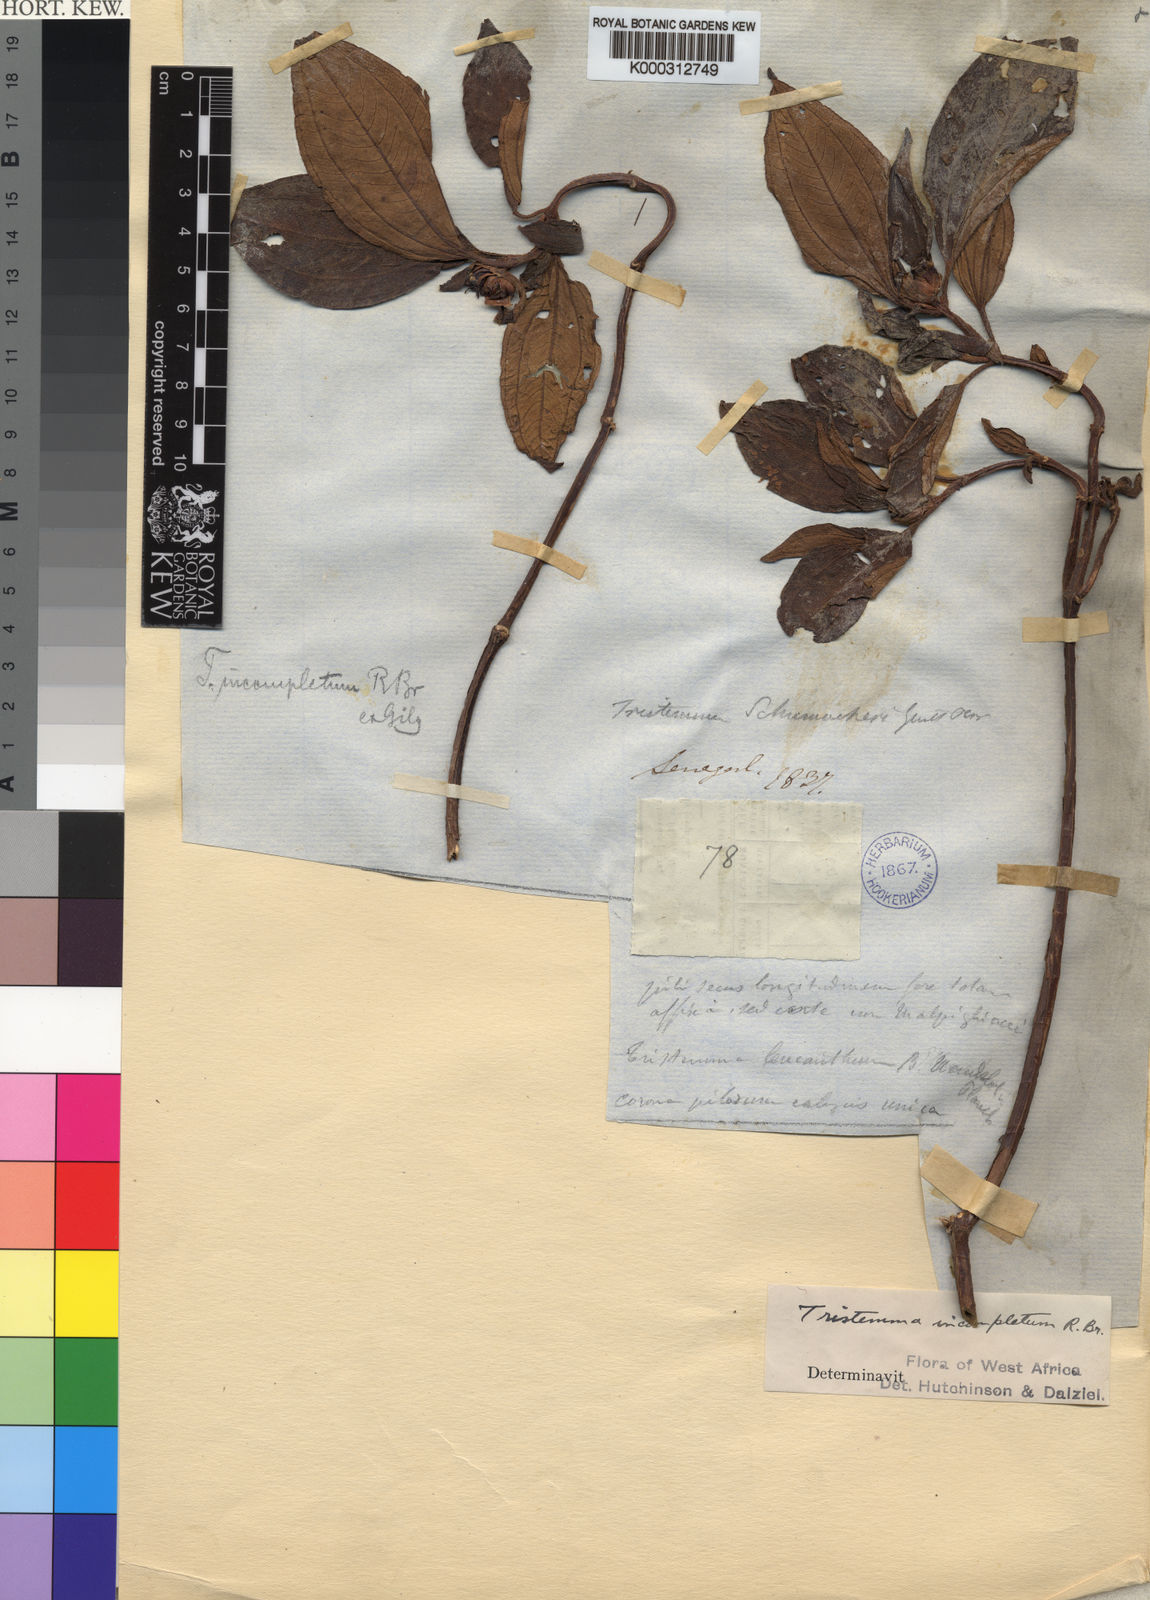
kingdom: Plantae
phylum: Tracheophyta
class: Magnoliopsida
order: Myrtales
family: Melastomataceae
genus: Tristemma
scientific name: Tristemma mauritianum
